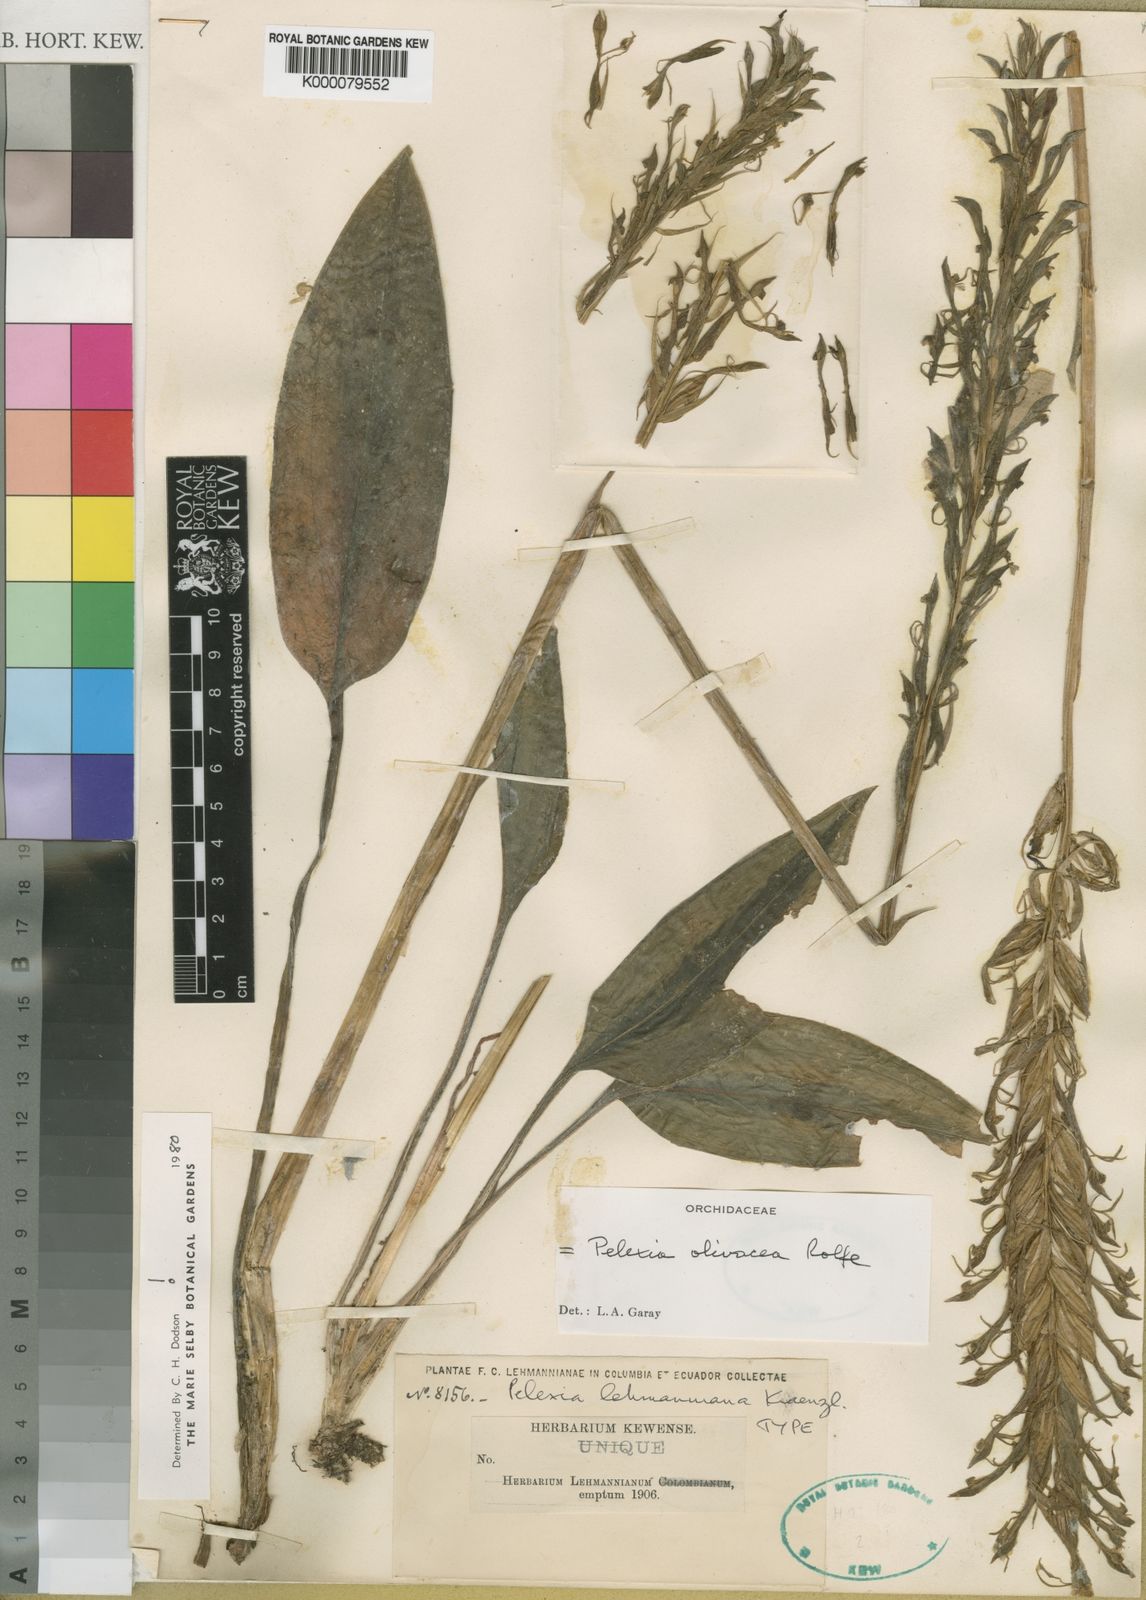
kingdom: Plantae
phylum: Tracheophyta
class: Liliopsida
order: Asparagales
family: Orchidaceae
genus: Pelexia
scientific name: Pelexia olivacea
